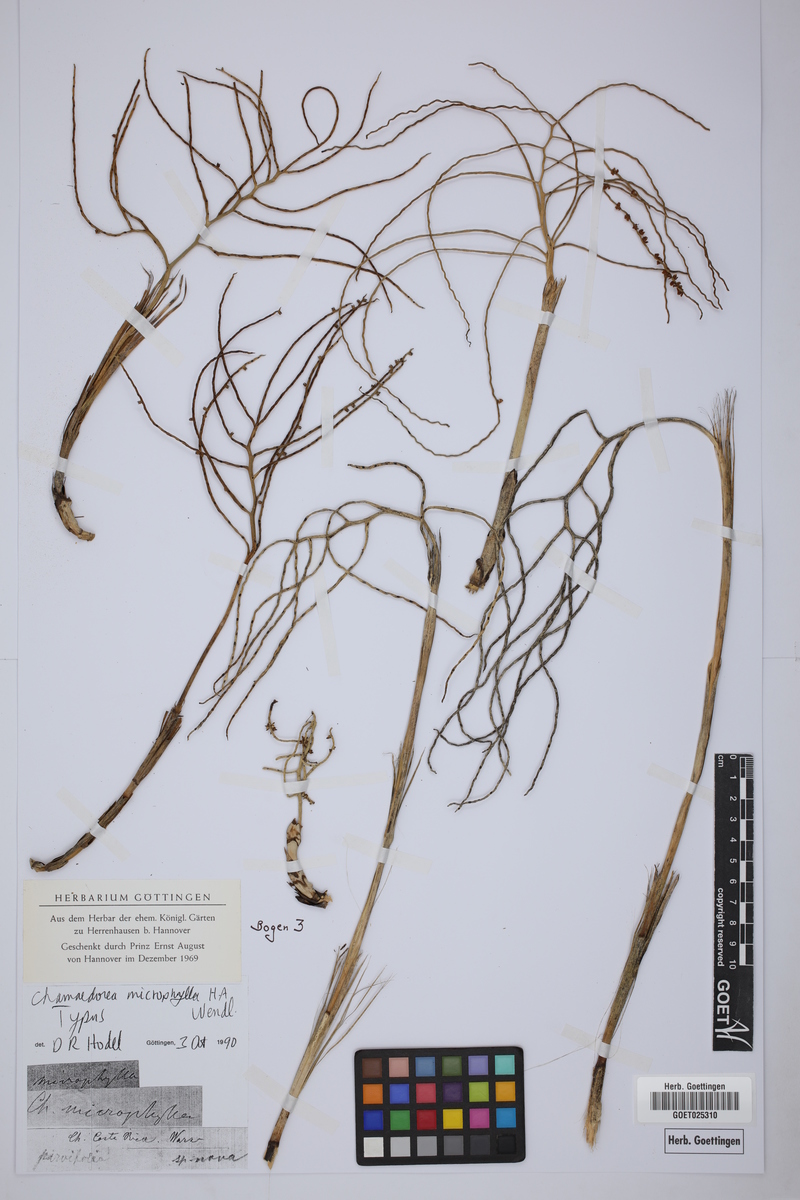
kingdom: Plantae
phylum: Tracheophyta
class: Liliopsida
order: Arecales
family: Arecaceae
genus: Chamaedorea
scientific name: Chamaedorea microphylla
